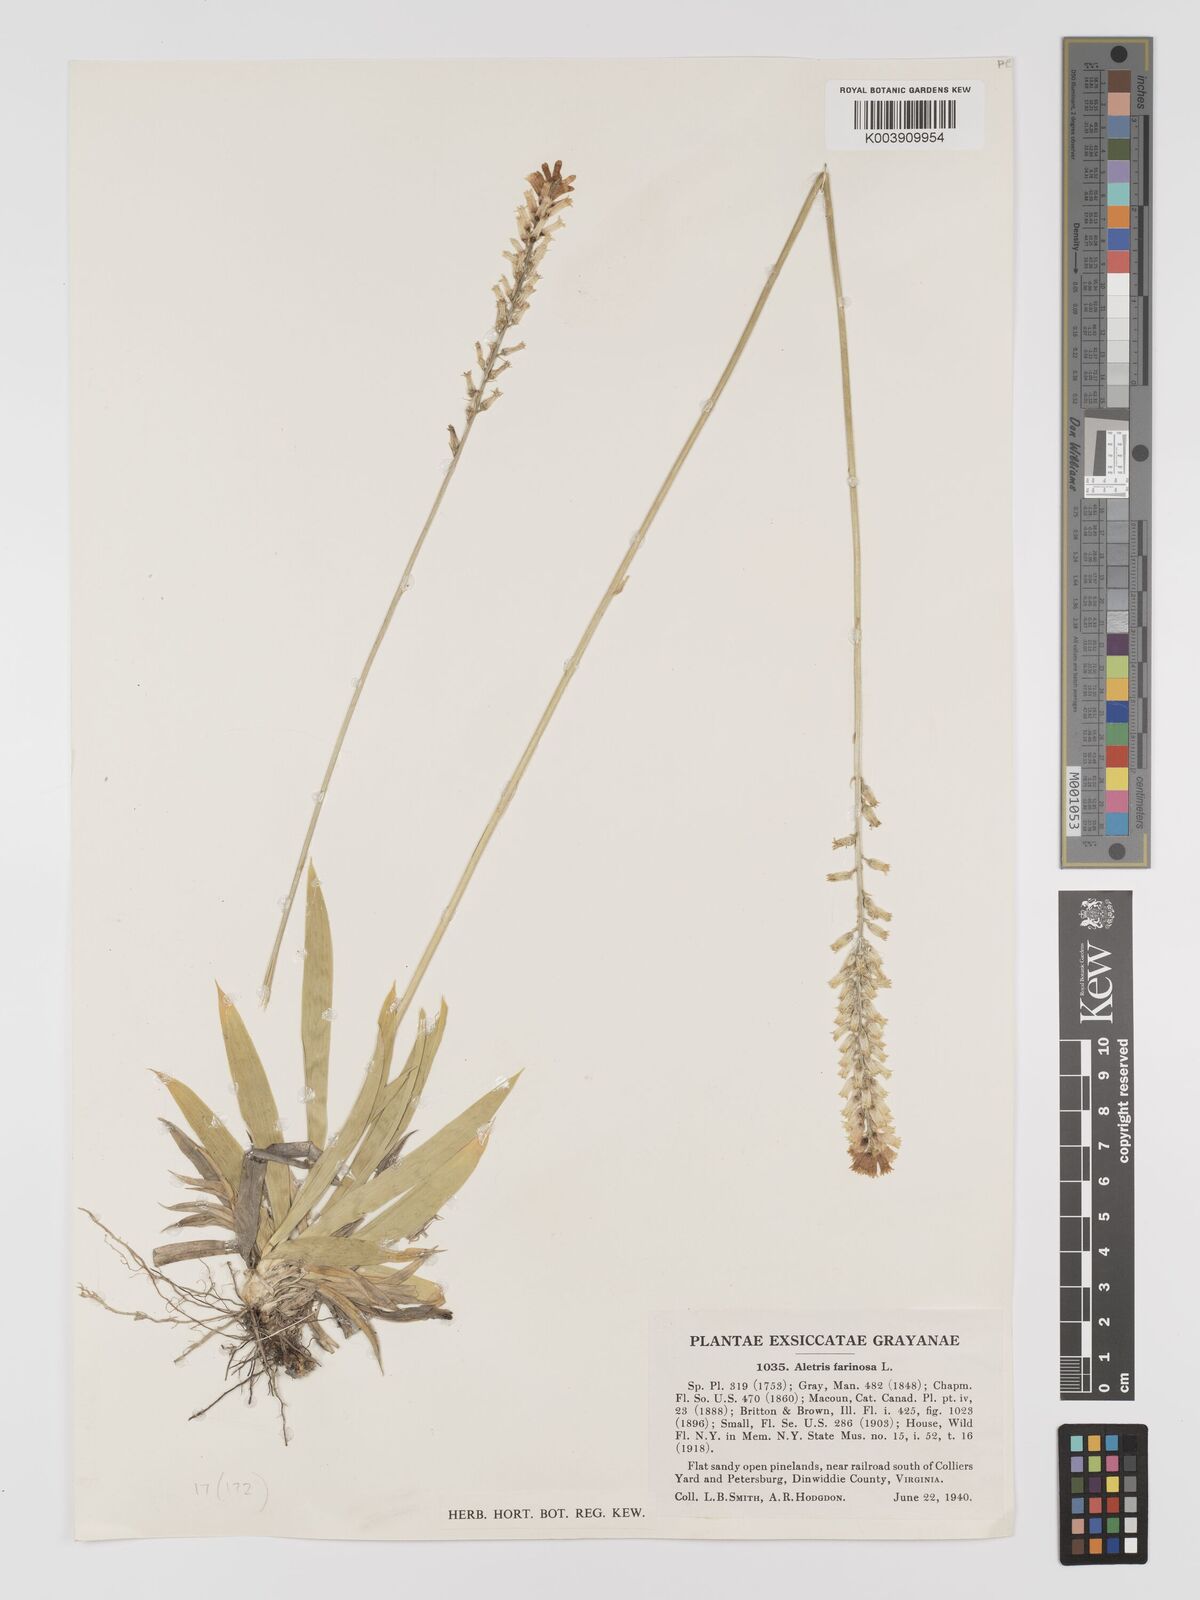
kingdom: Plantae
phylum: Tracheophyta
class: Liliopsida
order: Dioscoreales
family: Nartheciaceae
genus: Aletris
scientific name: Aletris obovata
